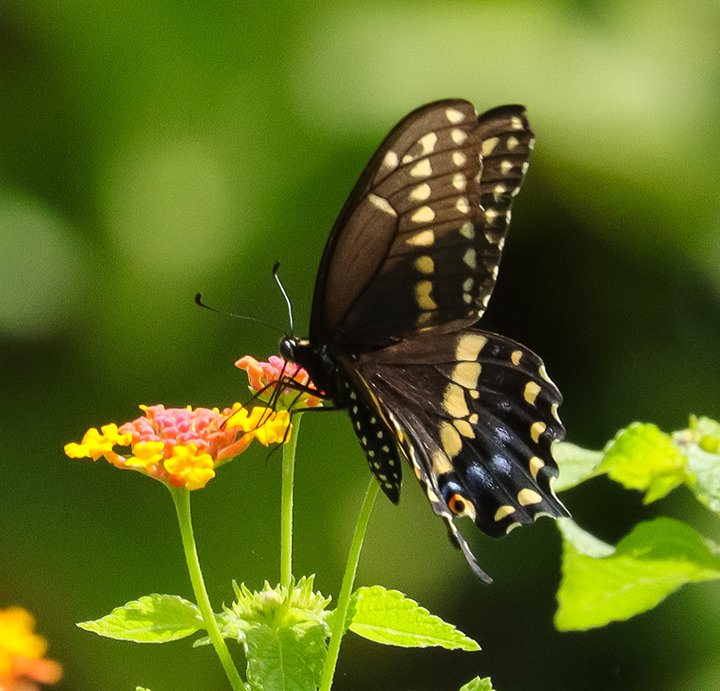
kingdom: Animalia
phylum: Arthropoda
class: Insecta
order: Lepidoptera
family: Papilionidae
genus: Papilio
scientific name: Papilio polyxenes
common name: Black Swallowtail
